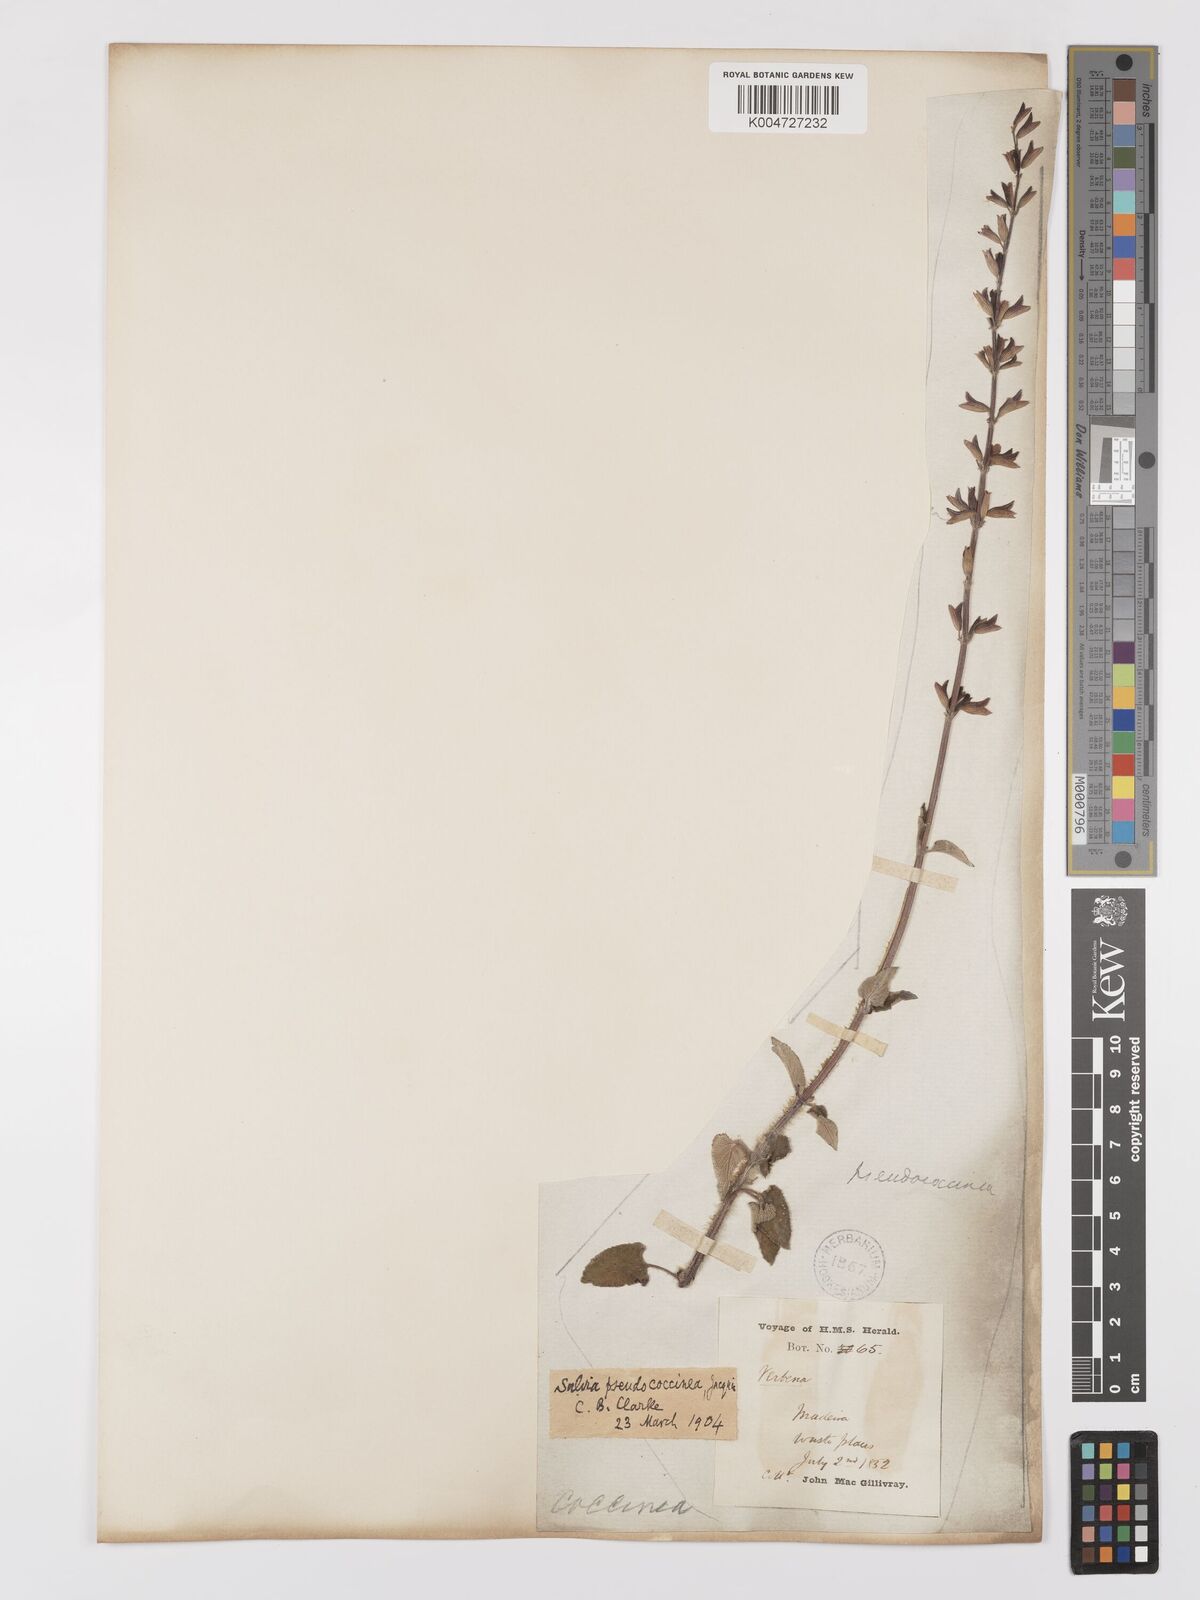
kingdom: Plantae
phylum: Tracheophyta
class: Magnoliopsida
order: Lamiales
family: Lamiaceae
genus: Salvia
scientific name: Salvia
